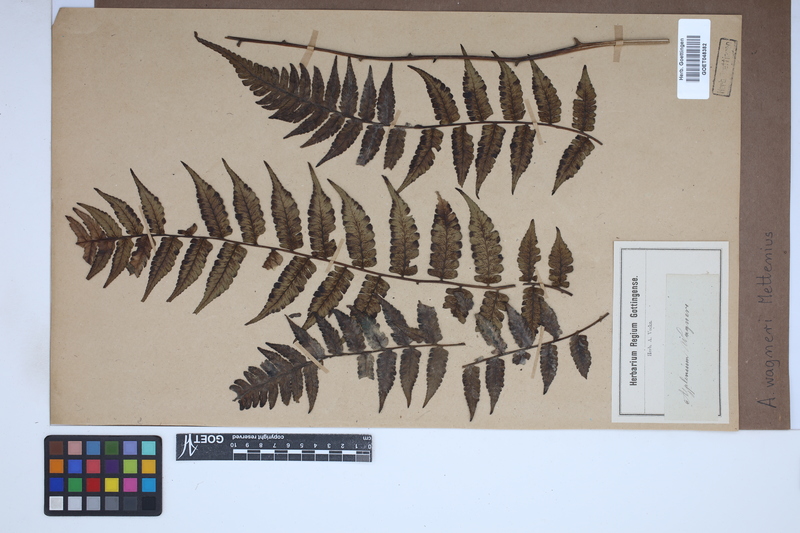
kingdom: Plantae
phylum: Tracheophyta
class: Polypodiopsida
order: Polypodiales
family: Aspleniaceae
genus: Asplenium
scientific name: Asplenium monanthes
